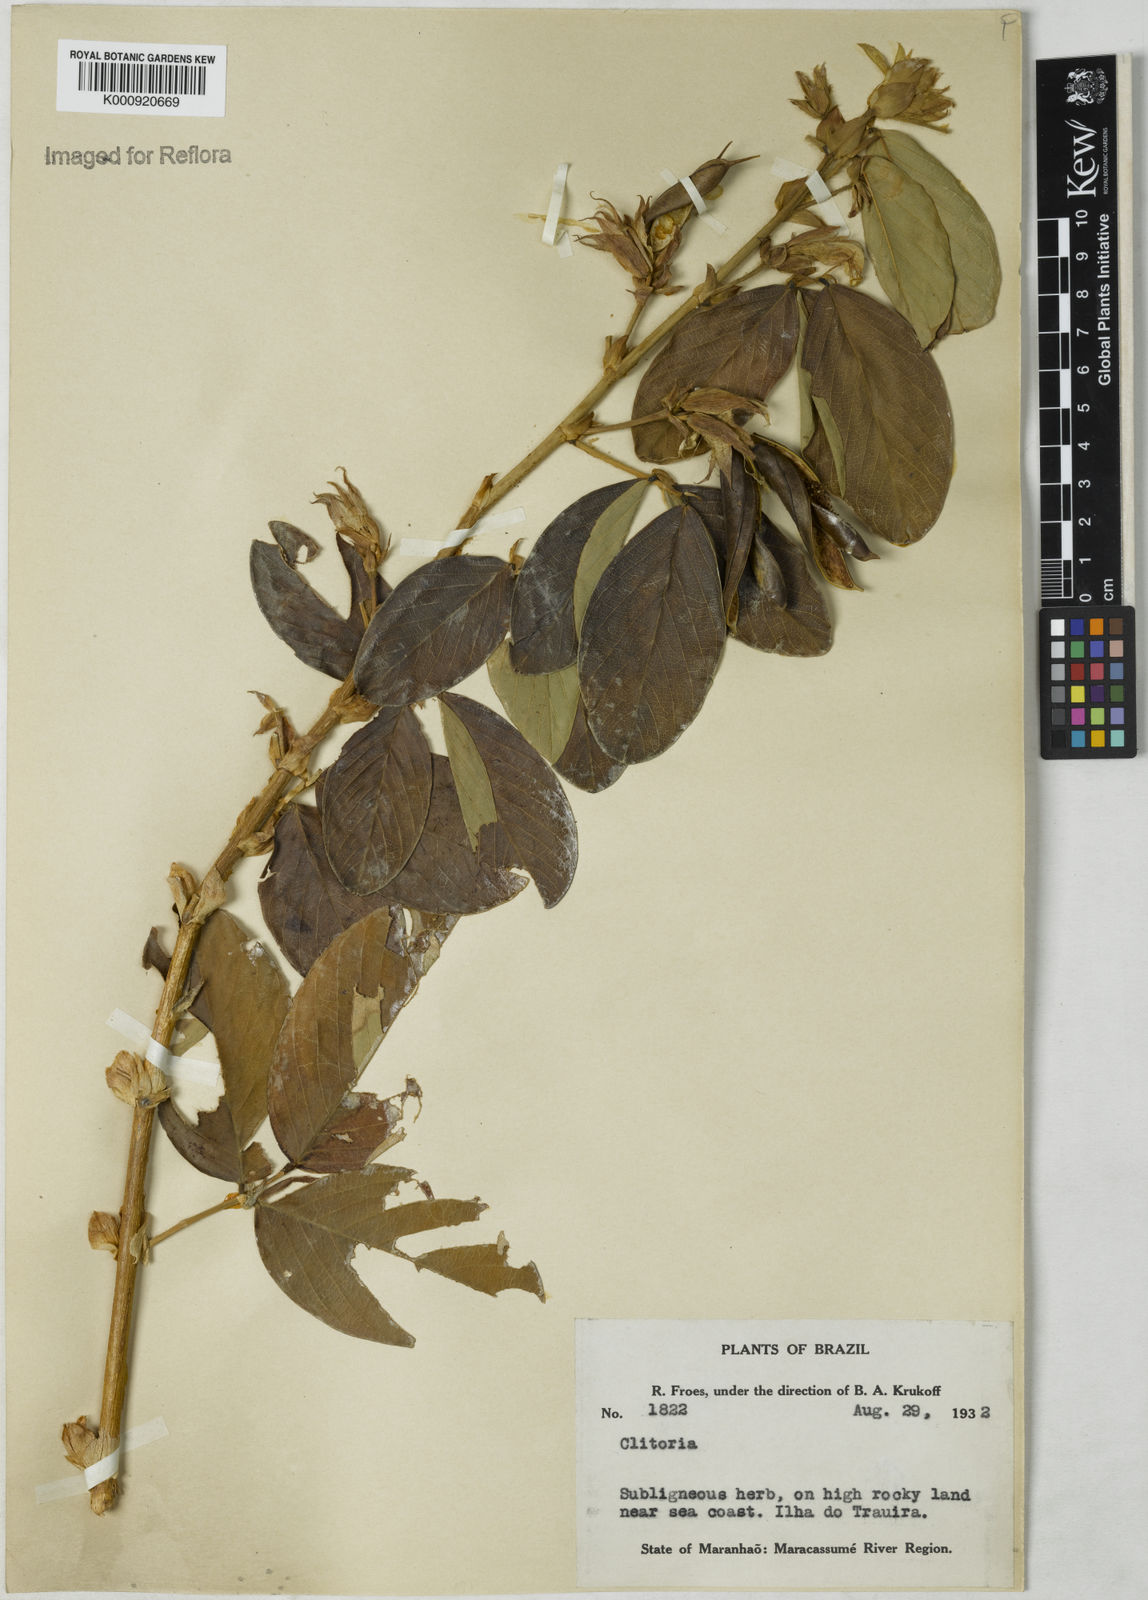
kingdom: Plantae
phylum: Tracheophyta
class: Magnoliopsida
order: Fabales
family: Fabaceae
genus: Clitoria
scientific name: Clitoria
